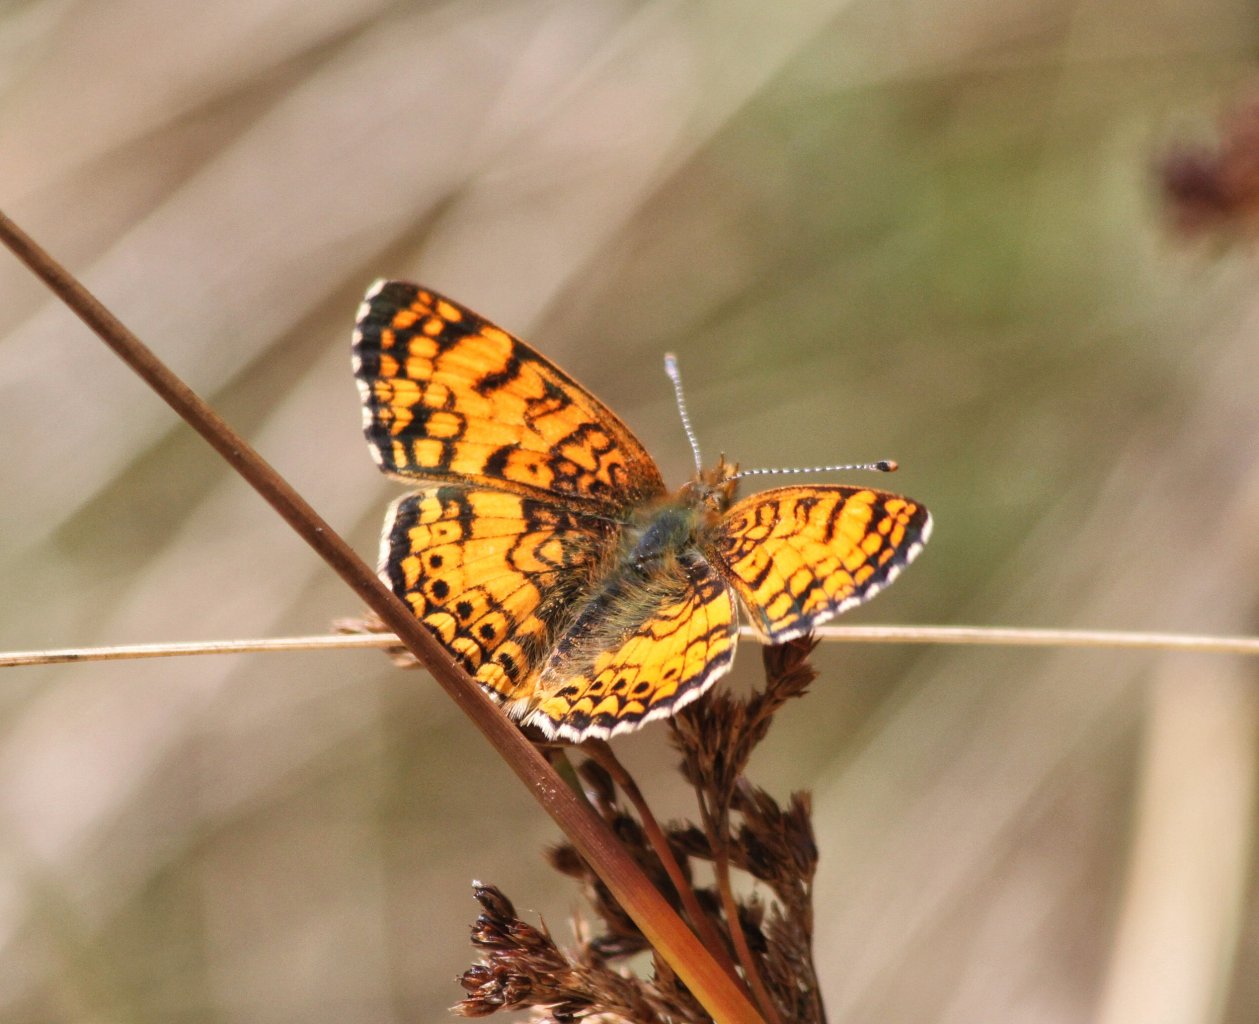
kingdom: Animalia
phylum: Arthropoda
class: Insecta
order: Lepidoptera
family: Nymphalidae
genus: Eresia
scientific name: Eresia aveyrona
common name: Mylitta Crescent
